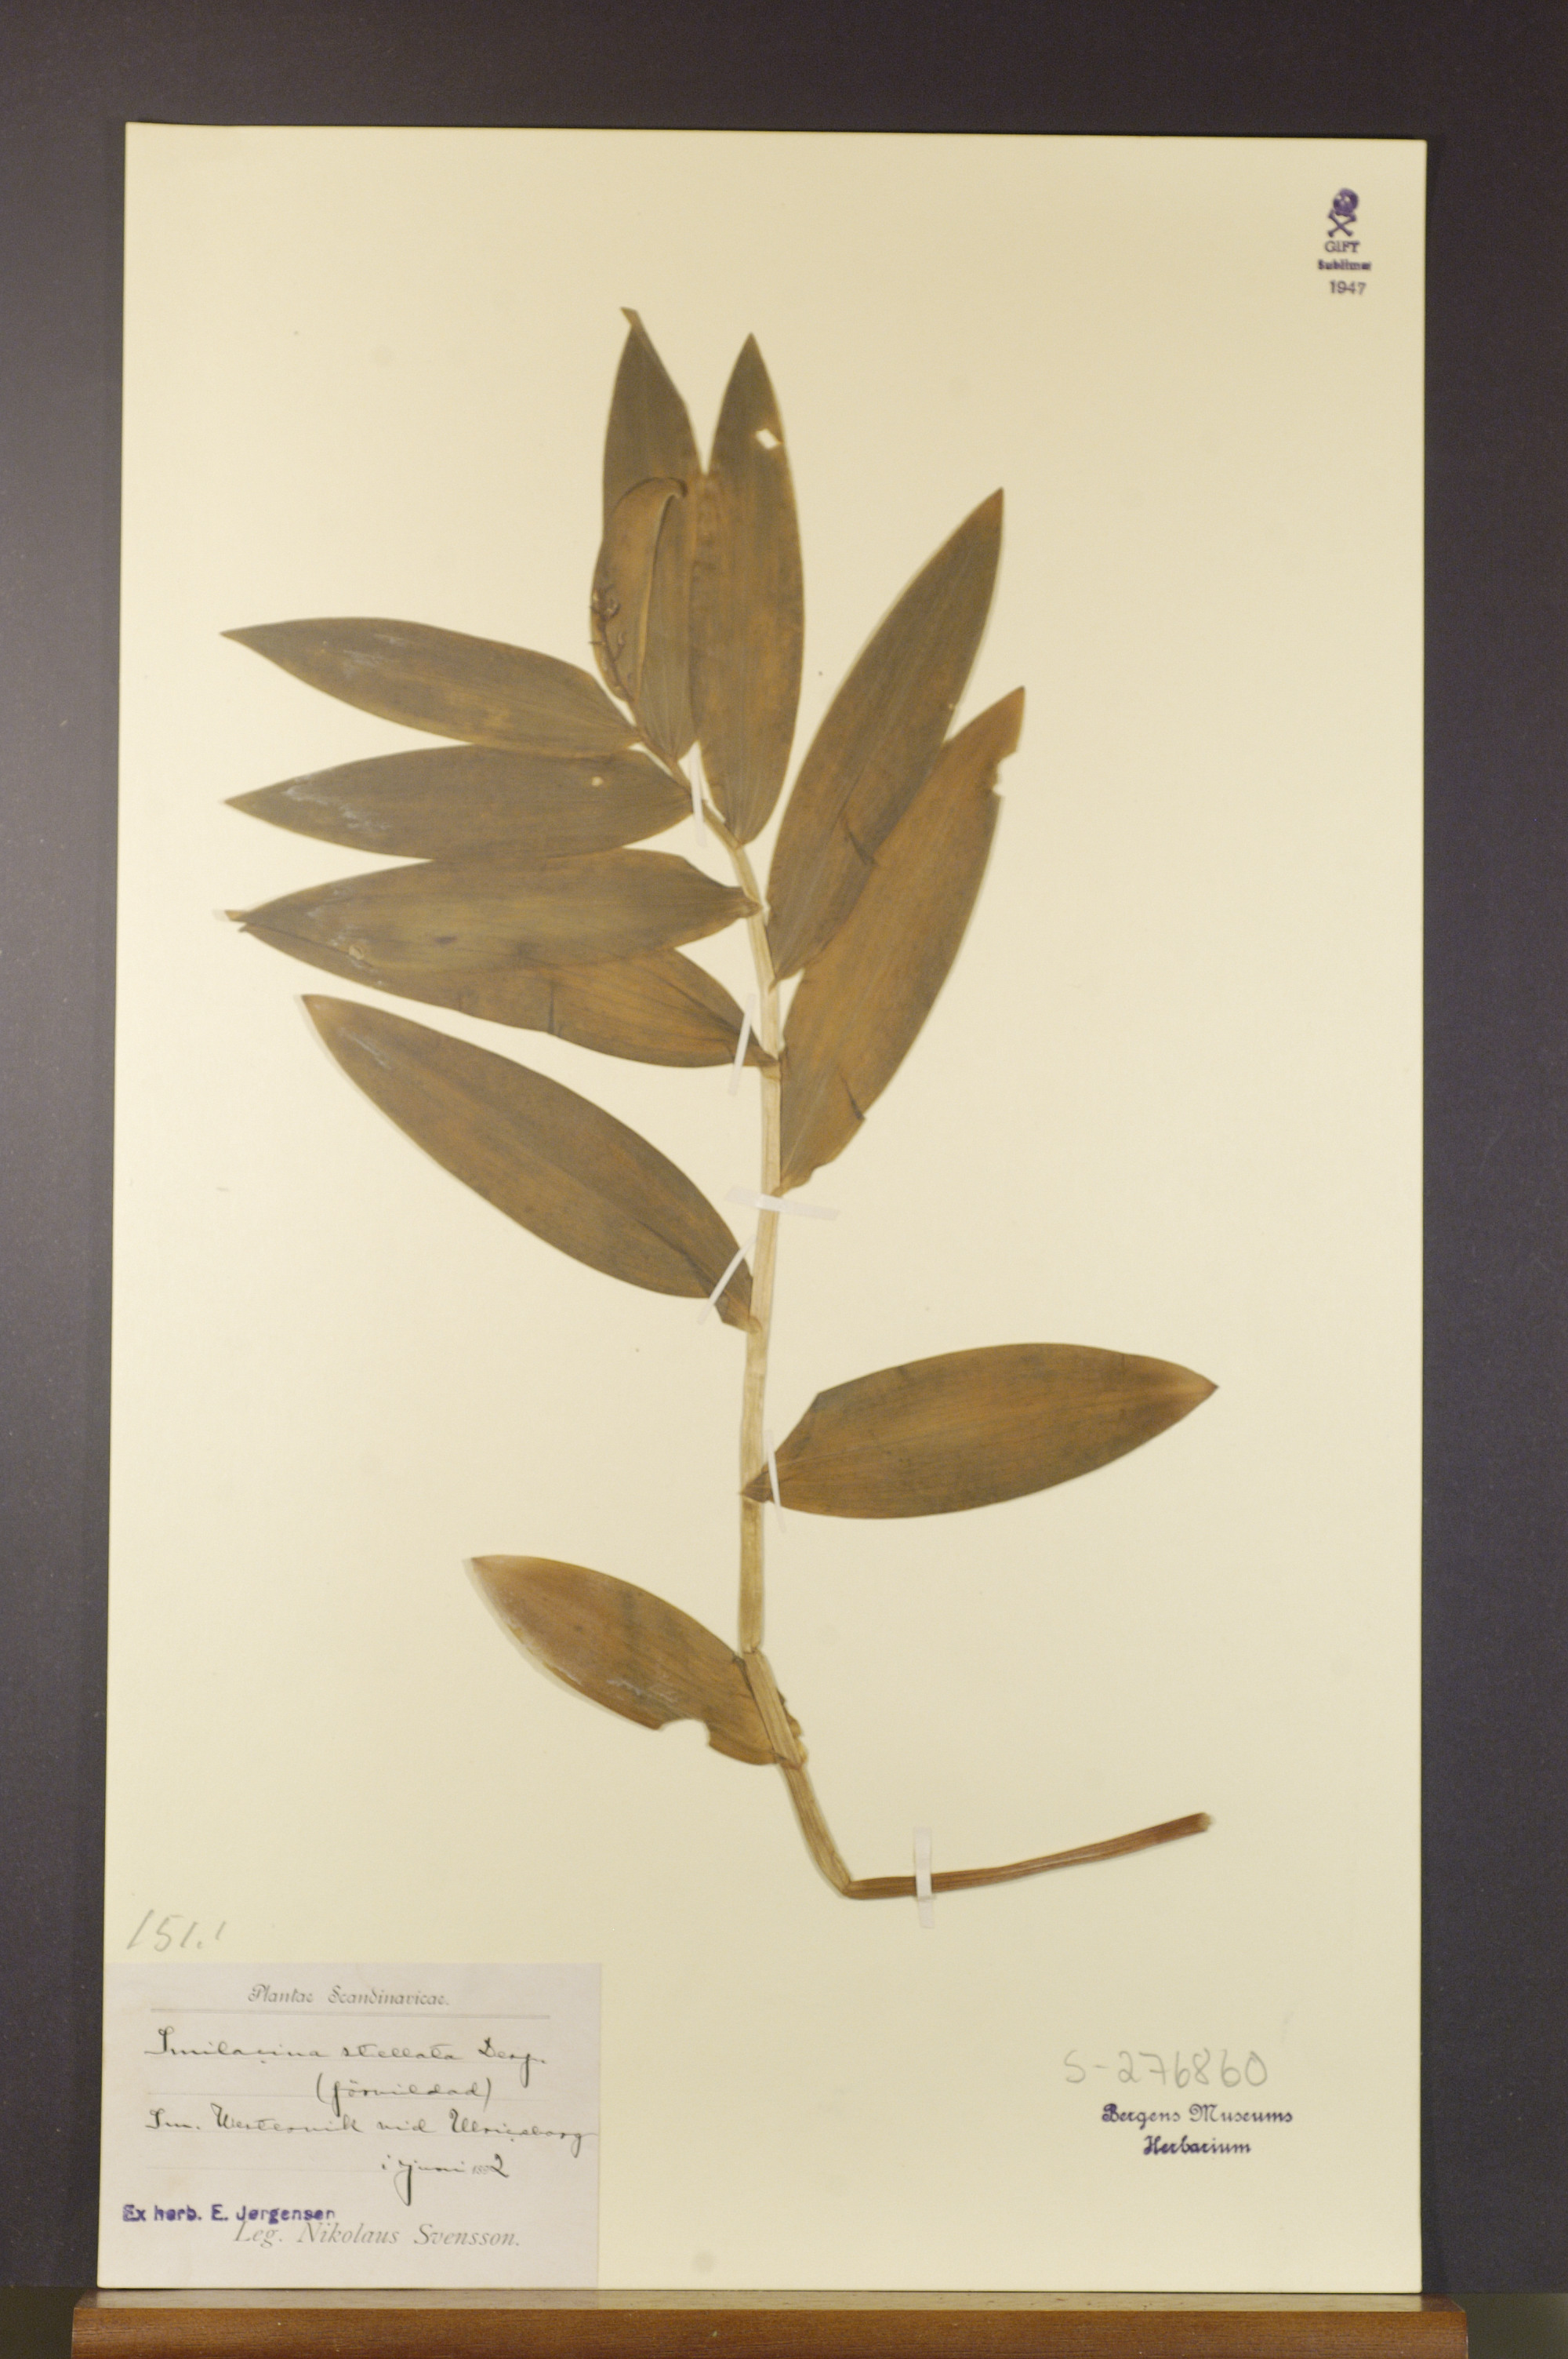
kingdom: Plantae
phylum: Tracheophyta
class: Liliopsida
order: Asparagales
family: Asparagaceae
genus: Maianthemum
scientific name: Maianthemum stellatum
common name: Little false solomon's seal
